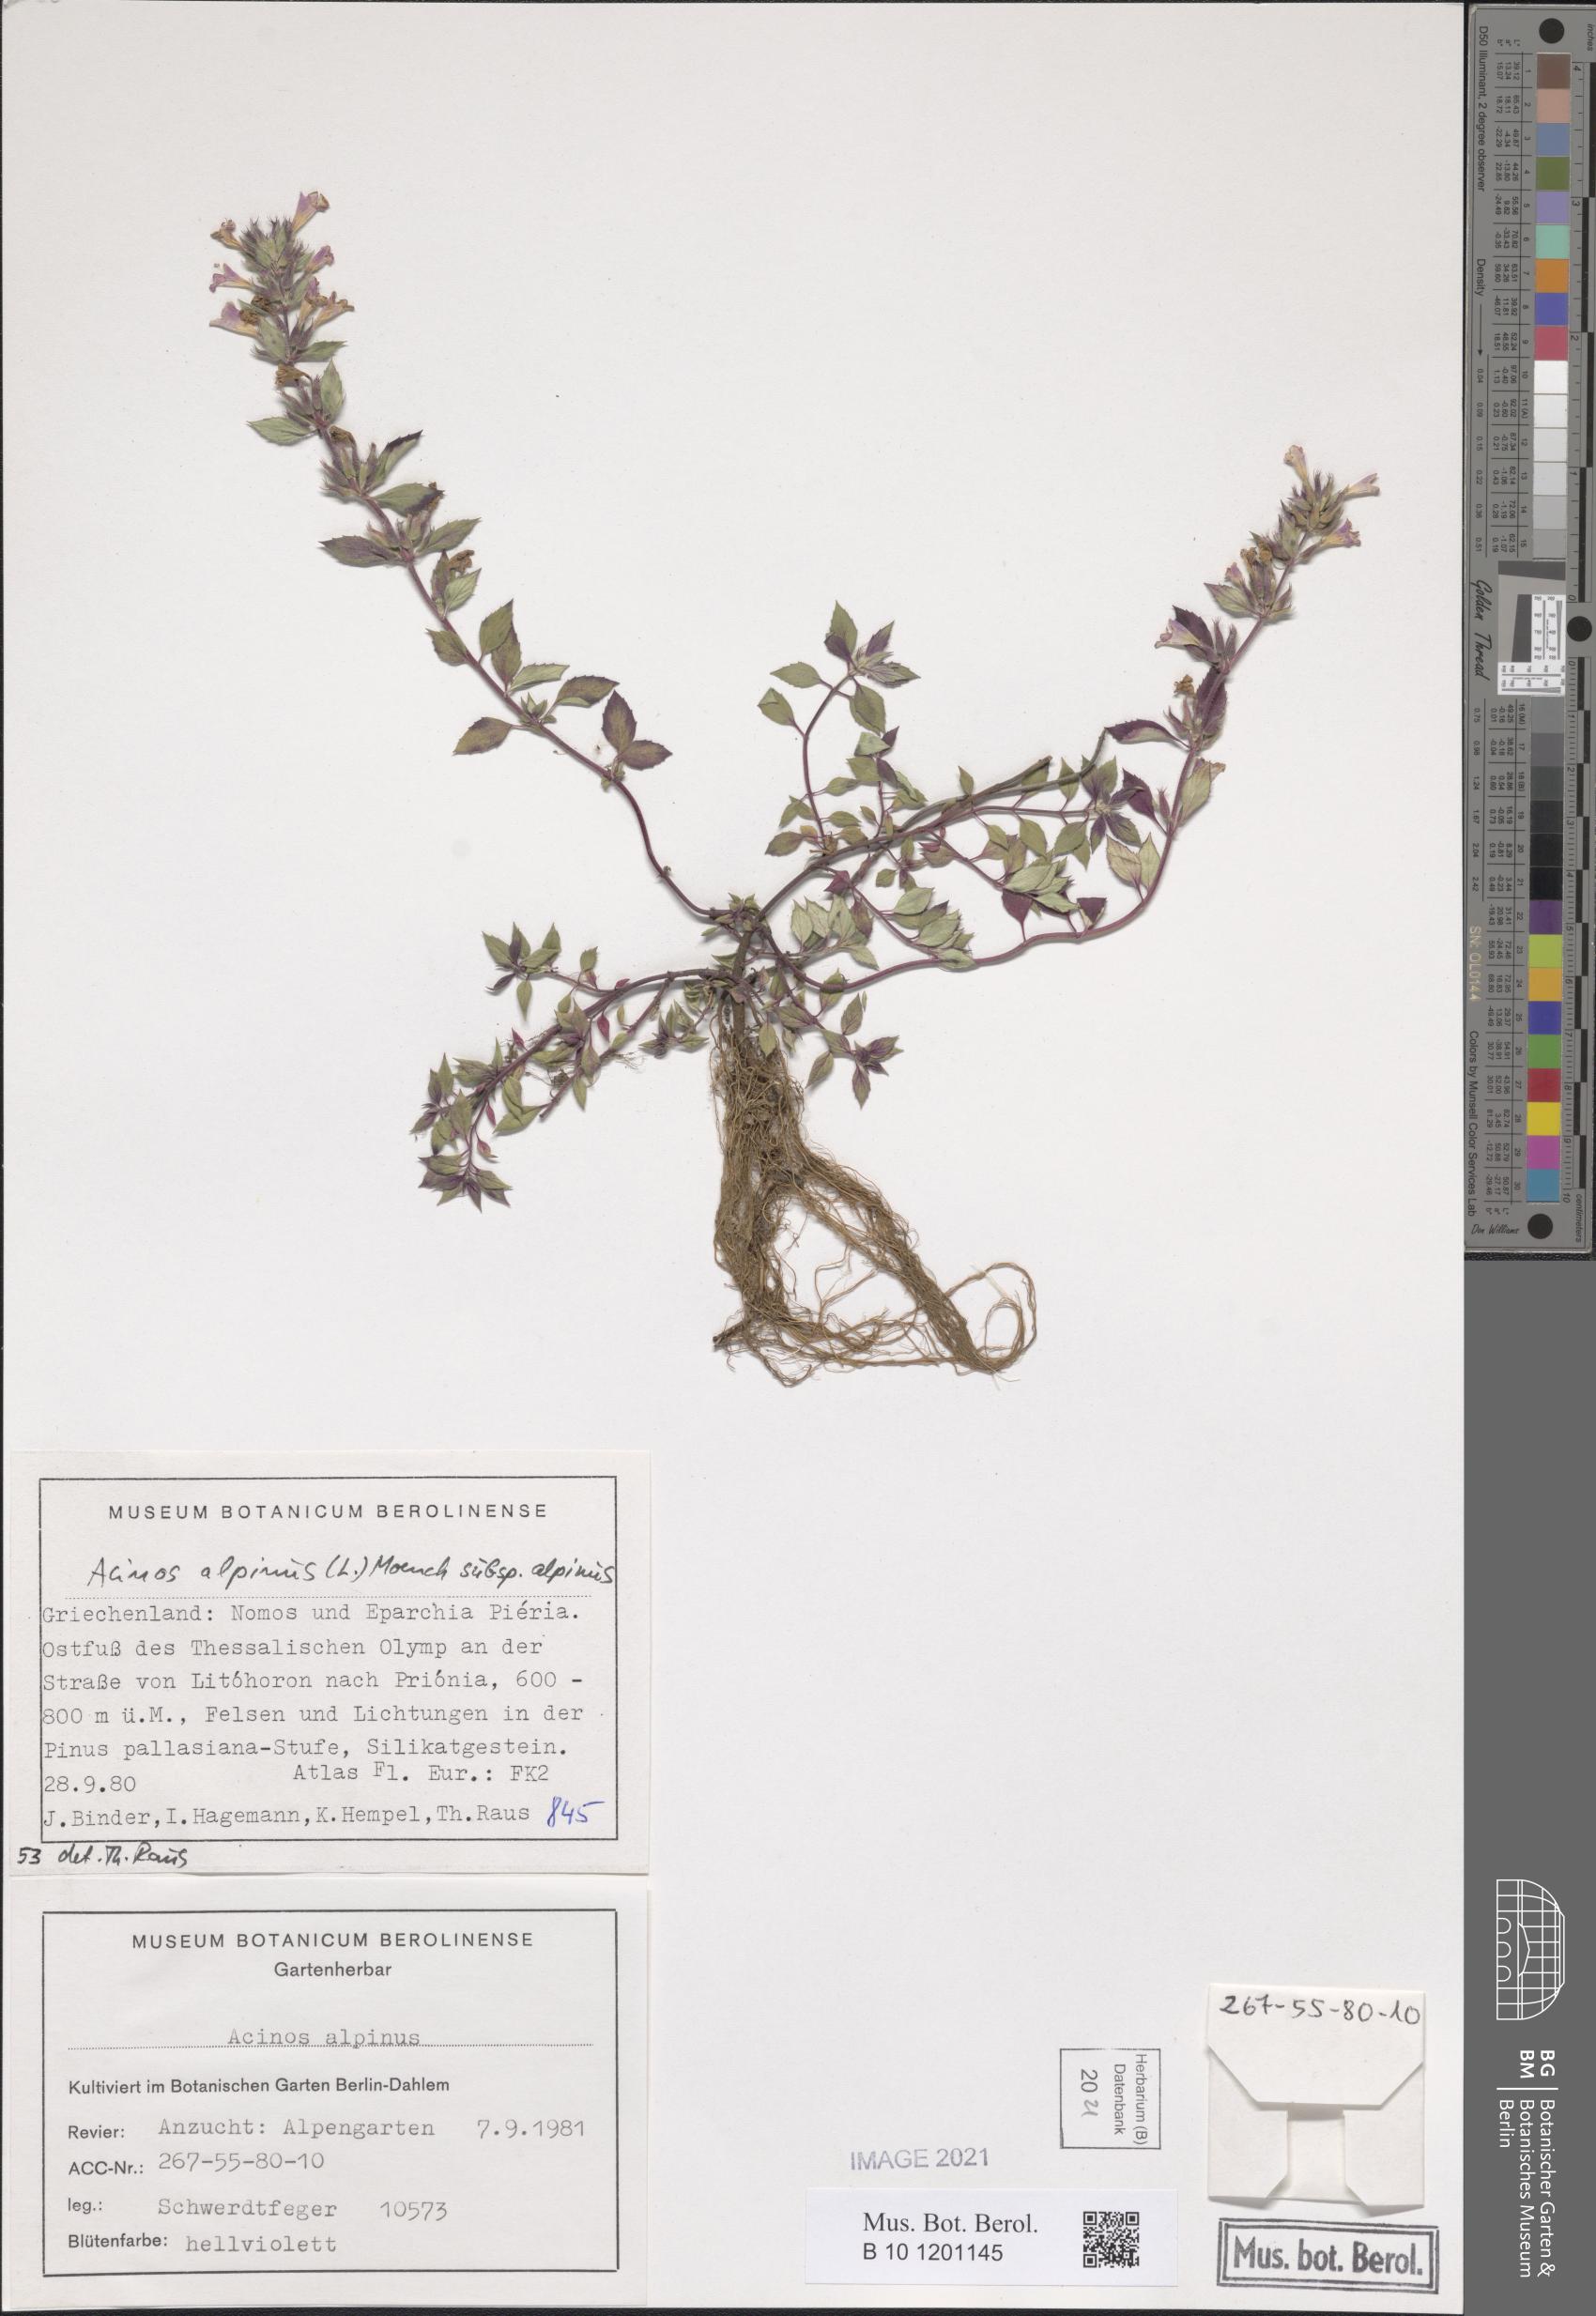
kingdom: Plantae
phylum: Tracheophyta
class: Magnoliopsida
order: Lamiales
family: Lamiaceae
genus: Clinopodium
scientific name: Clinopodium alpinum
